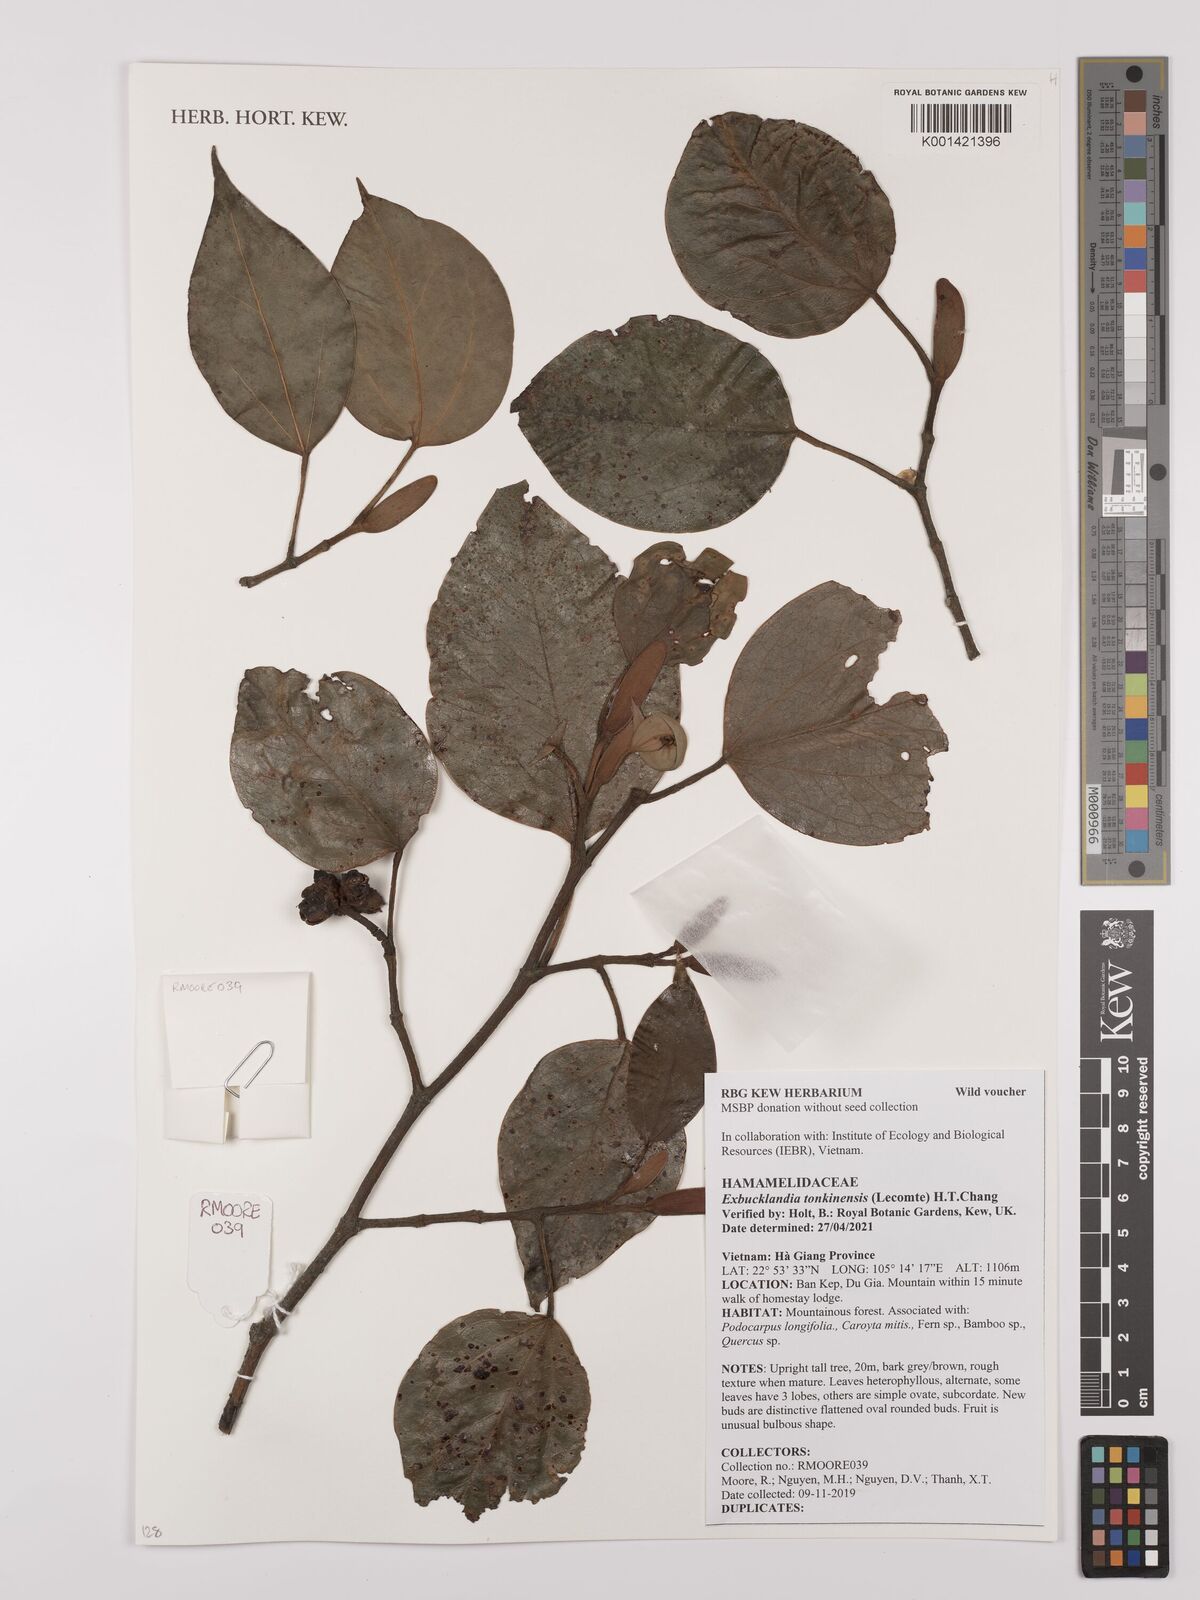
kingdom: Plantae
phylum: Tracheophyta
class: Magnoliopsida
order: Saxifragales
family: Hamamelidaceae
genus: Exbucklandia
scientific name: Exbucklandia tonkinensis
